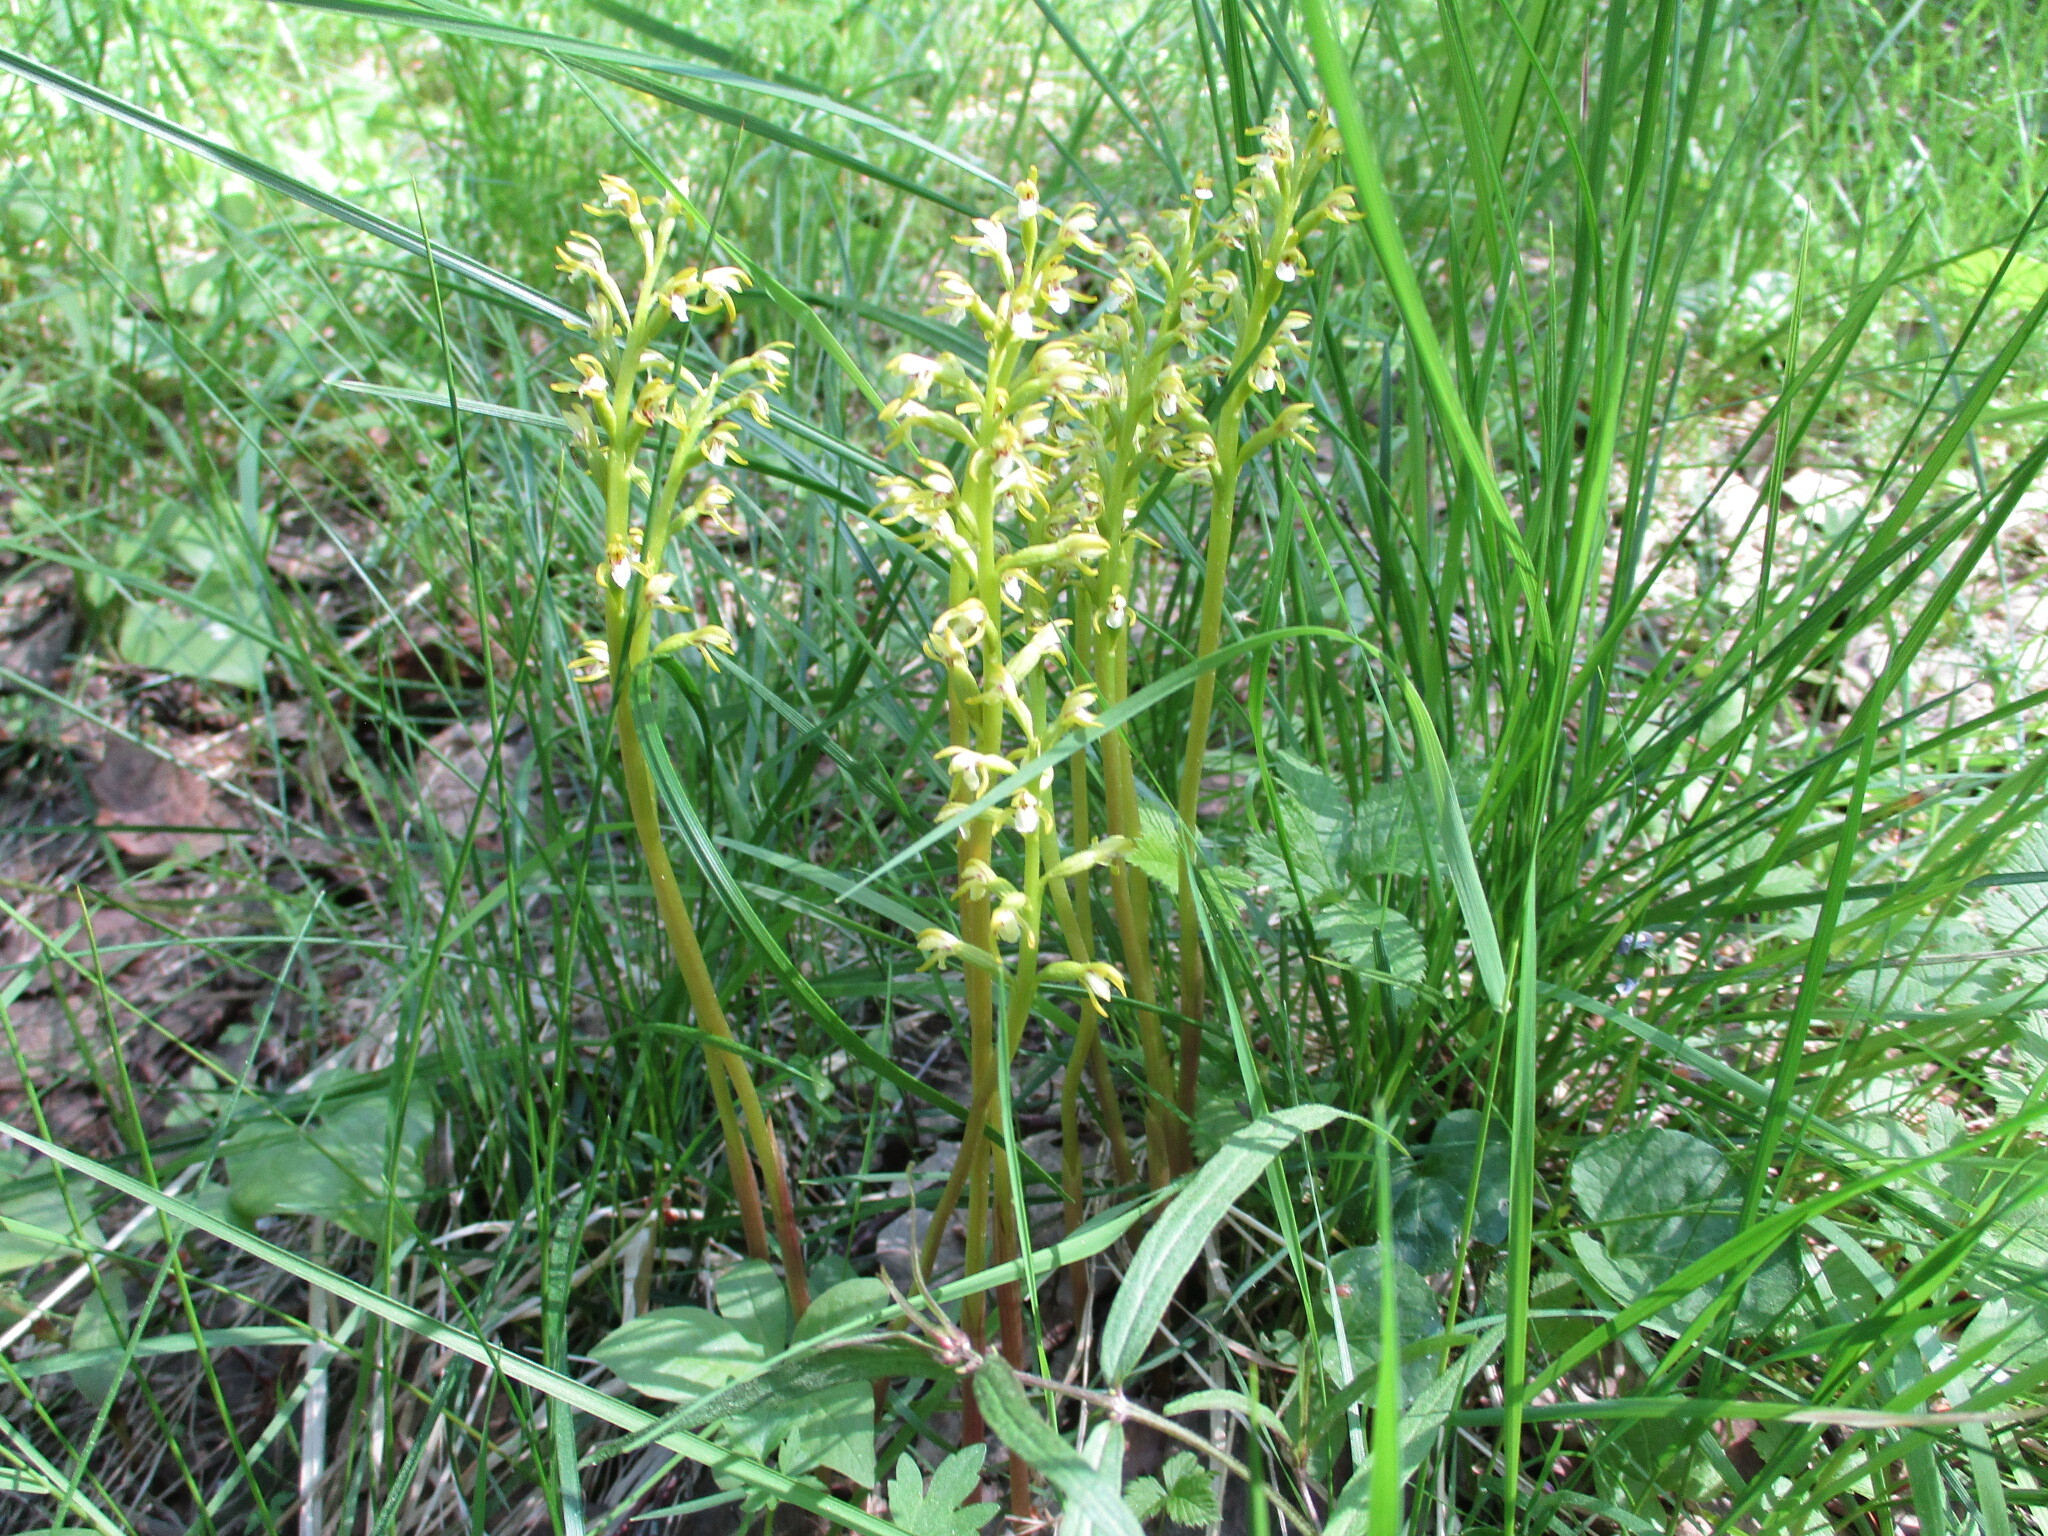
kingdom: Plantae
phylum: Tracheophyta
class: Liliopsida
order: Asparagales
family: Orchidaceae
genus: Corallorhiza
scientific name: Corallorhiza trifida
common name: Yellow coralroot
